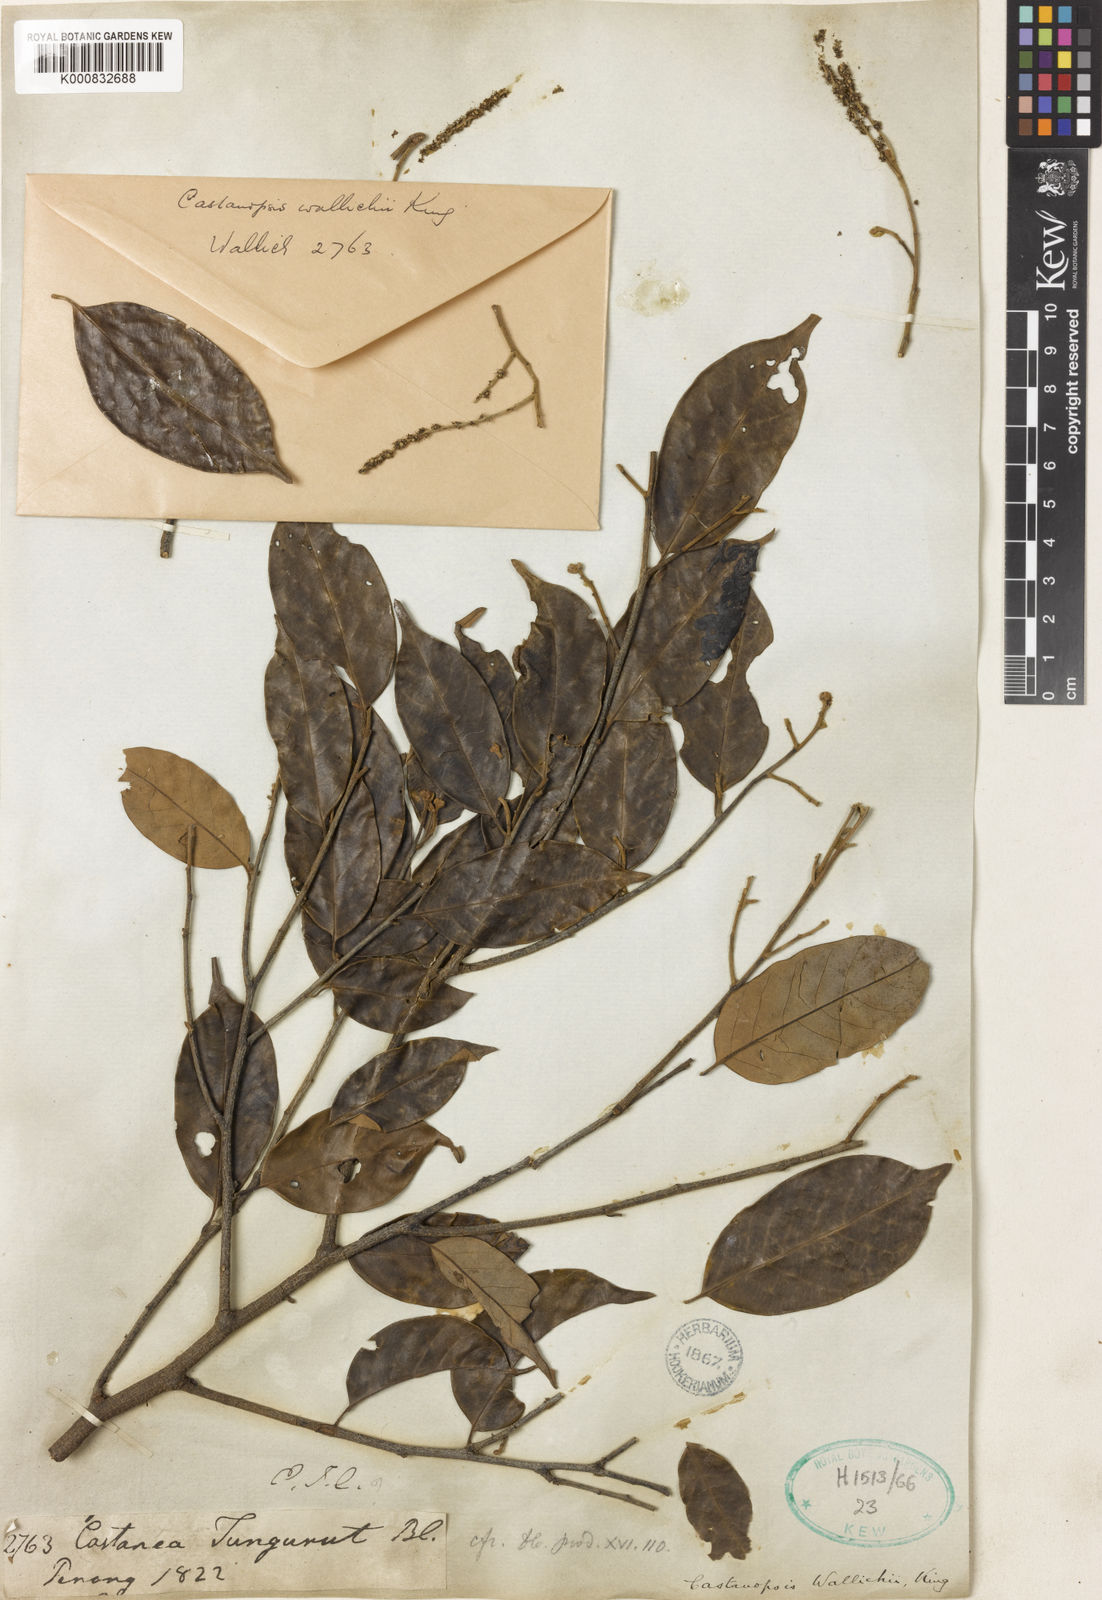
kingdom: Plantae
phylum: Tracheophyta
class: Magnoliopsida
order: Fagales
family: Fagaceae
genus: Castanopsis
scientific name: Castanopsis wallichii
